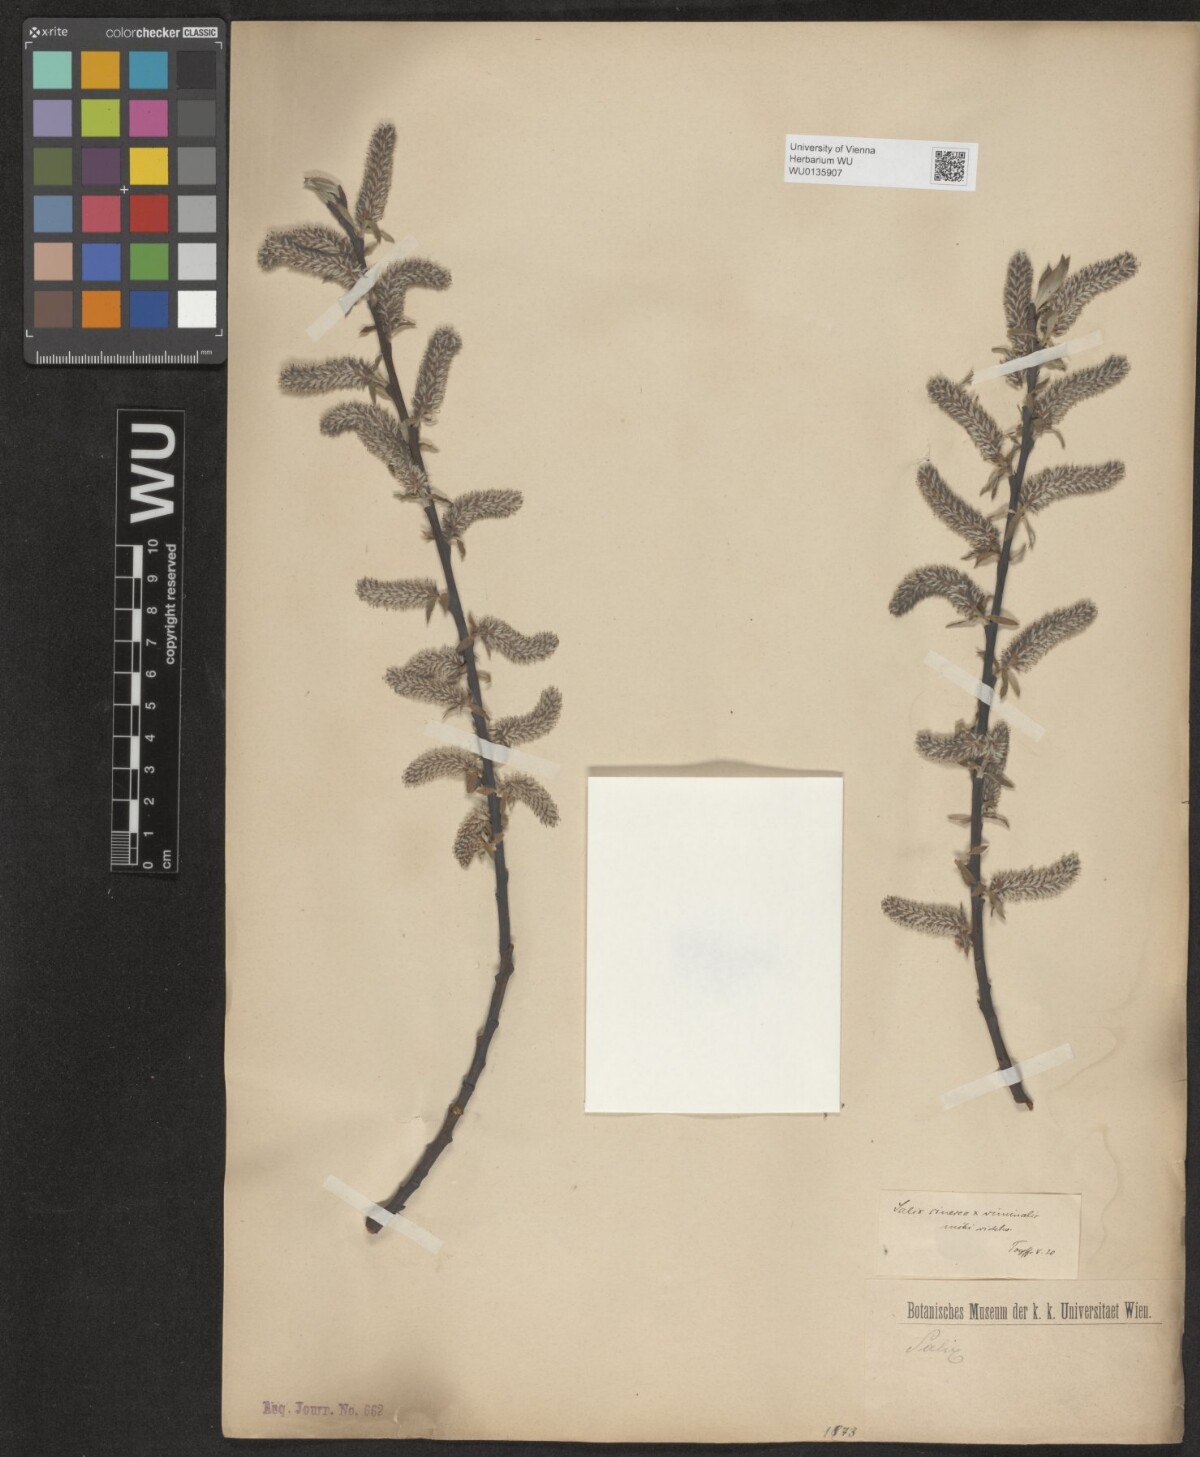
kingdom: Plantae
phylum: Tracheophyta
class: Magnoliopsida
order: Malpighiales
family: Salicaceae
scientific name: Salicaceae
